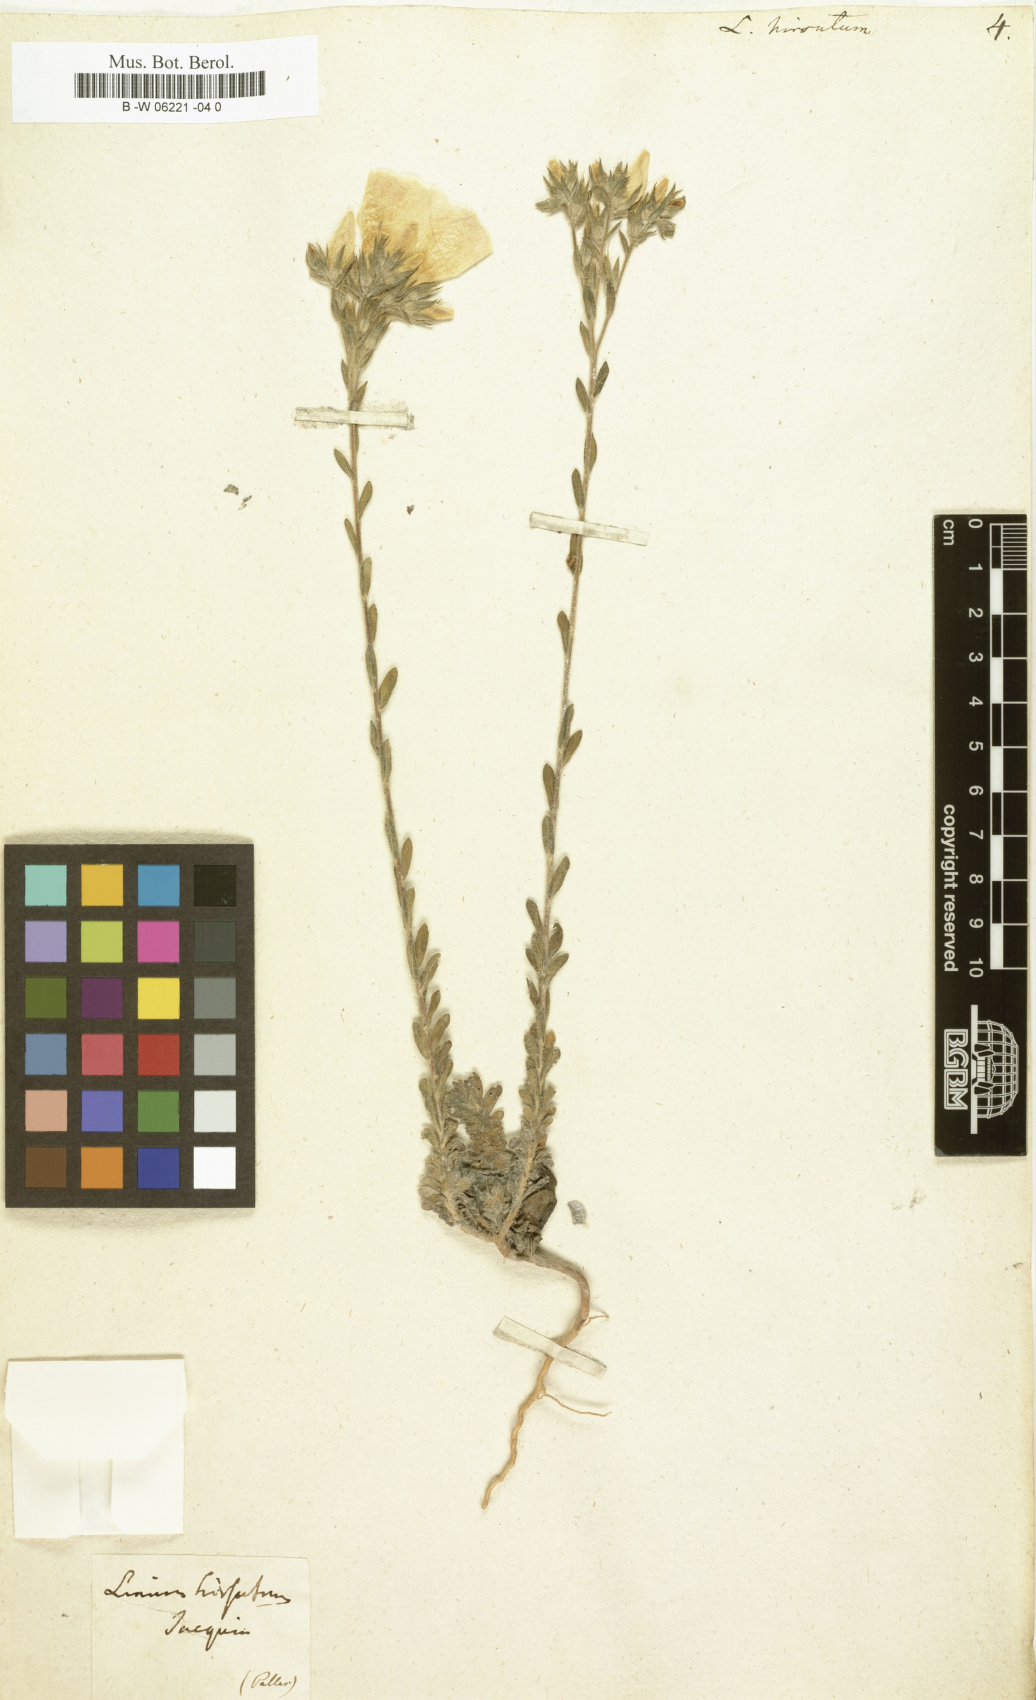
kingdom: Plantae
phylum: Tracheophyta
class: Magnoliopsida
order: Malpighiales
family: Linaceae
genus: Linum
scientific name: Linum hirsutum
